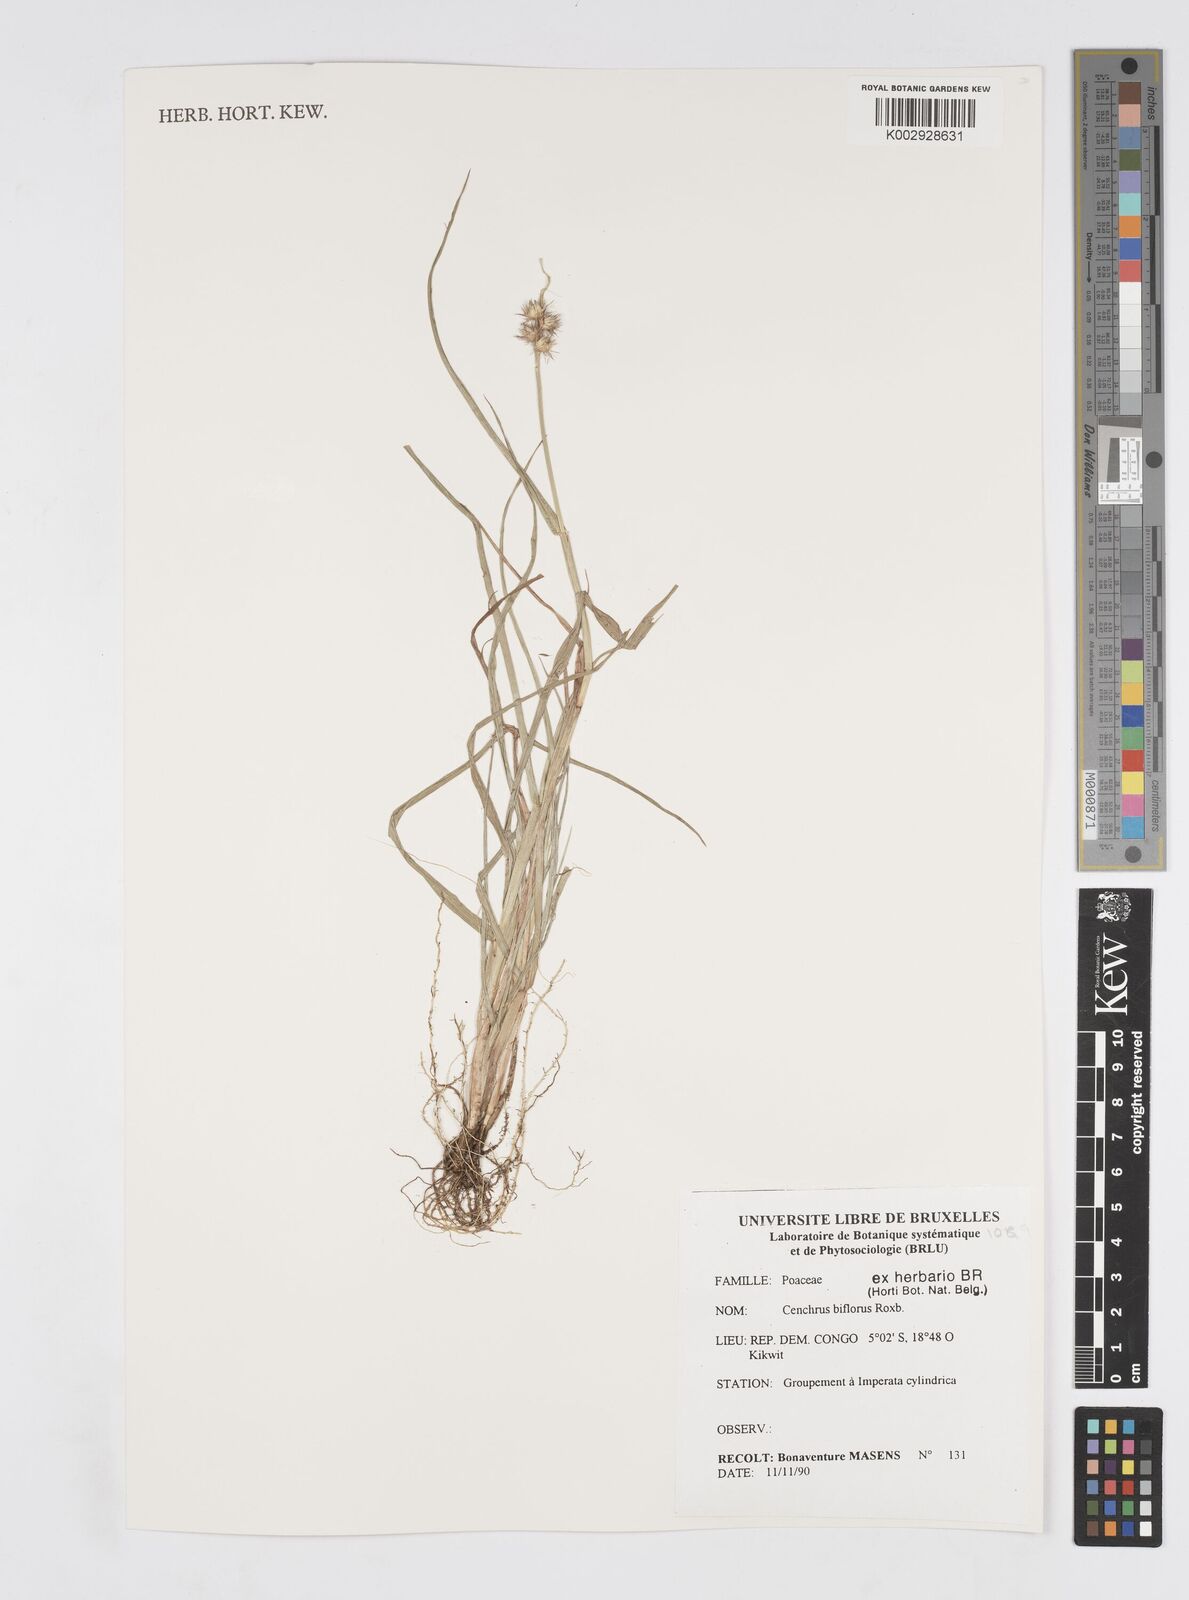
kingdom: Plantae
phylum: Tracheophyta
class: Liliopsida
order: Poales
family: Poaceae
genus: Cenchrus
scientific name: Cenchrus biflorus
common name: Indian sandbur
